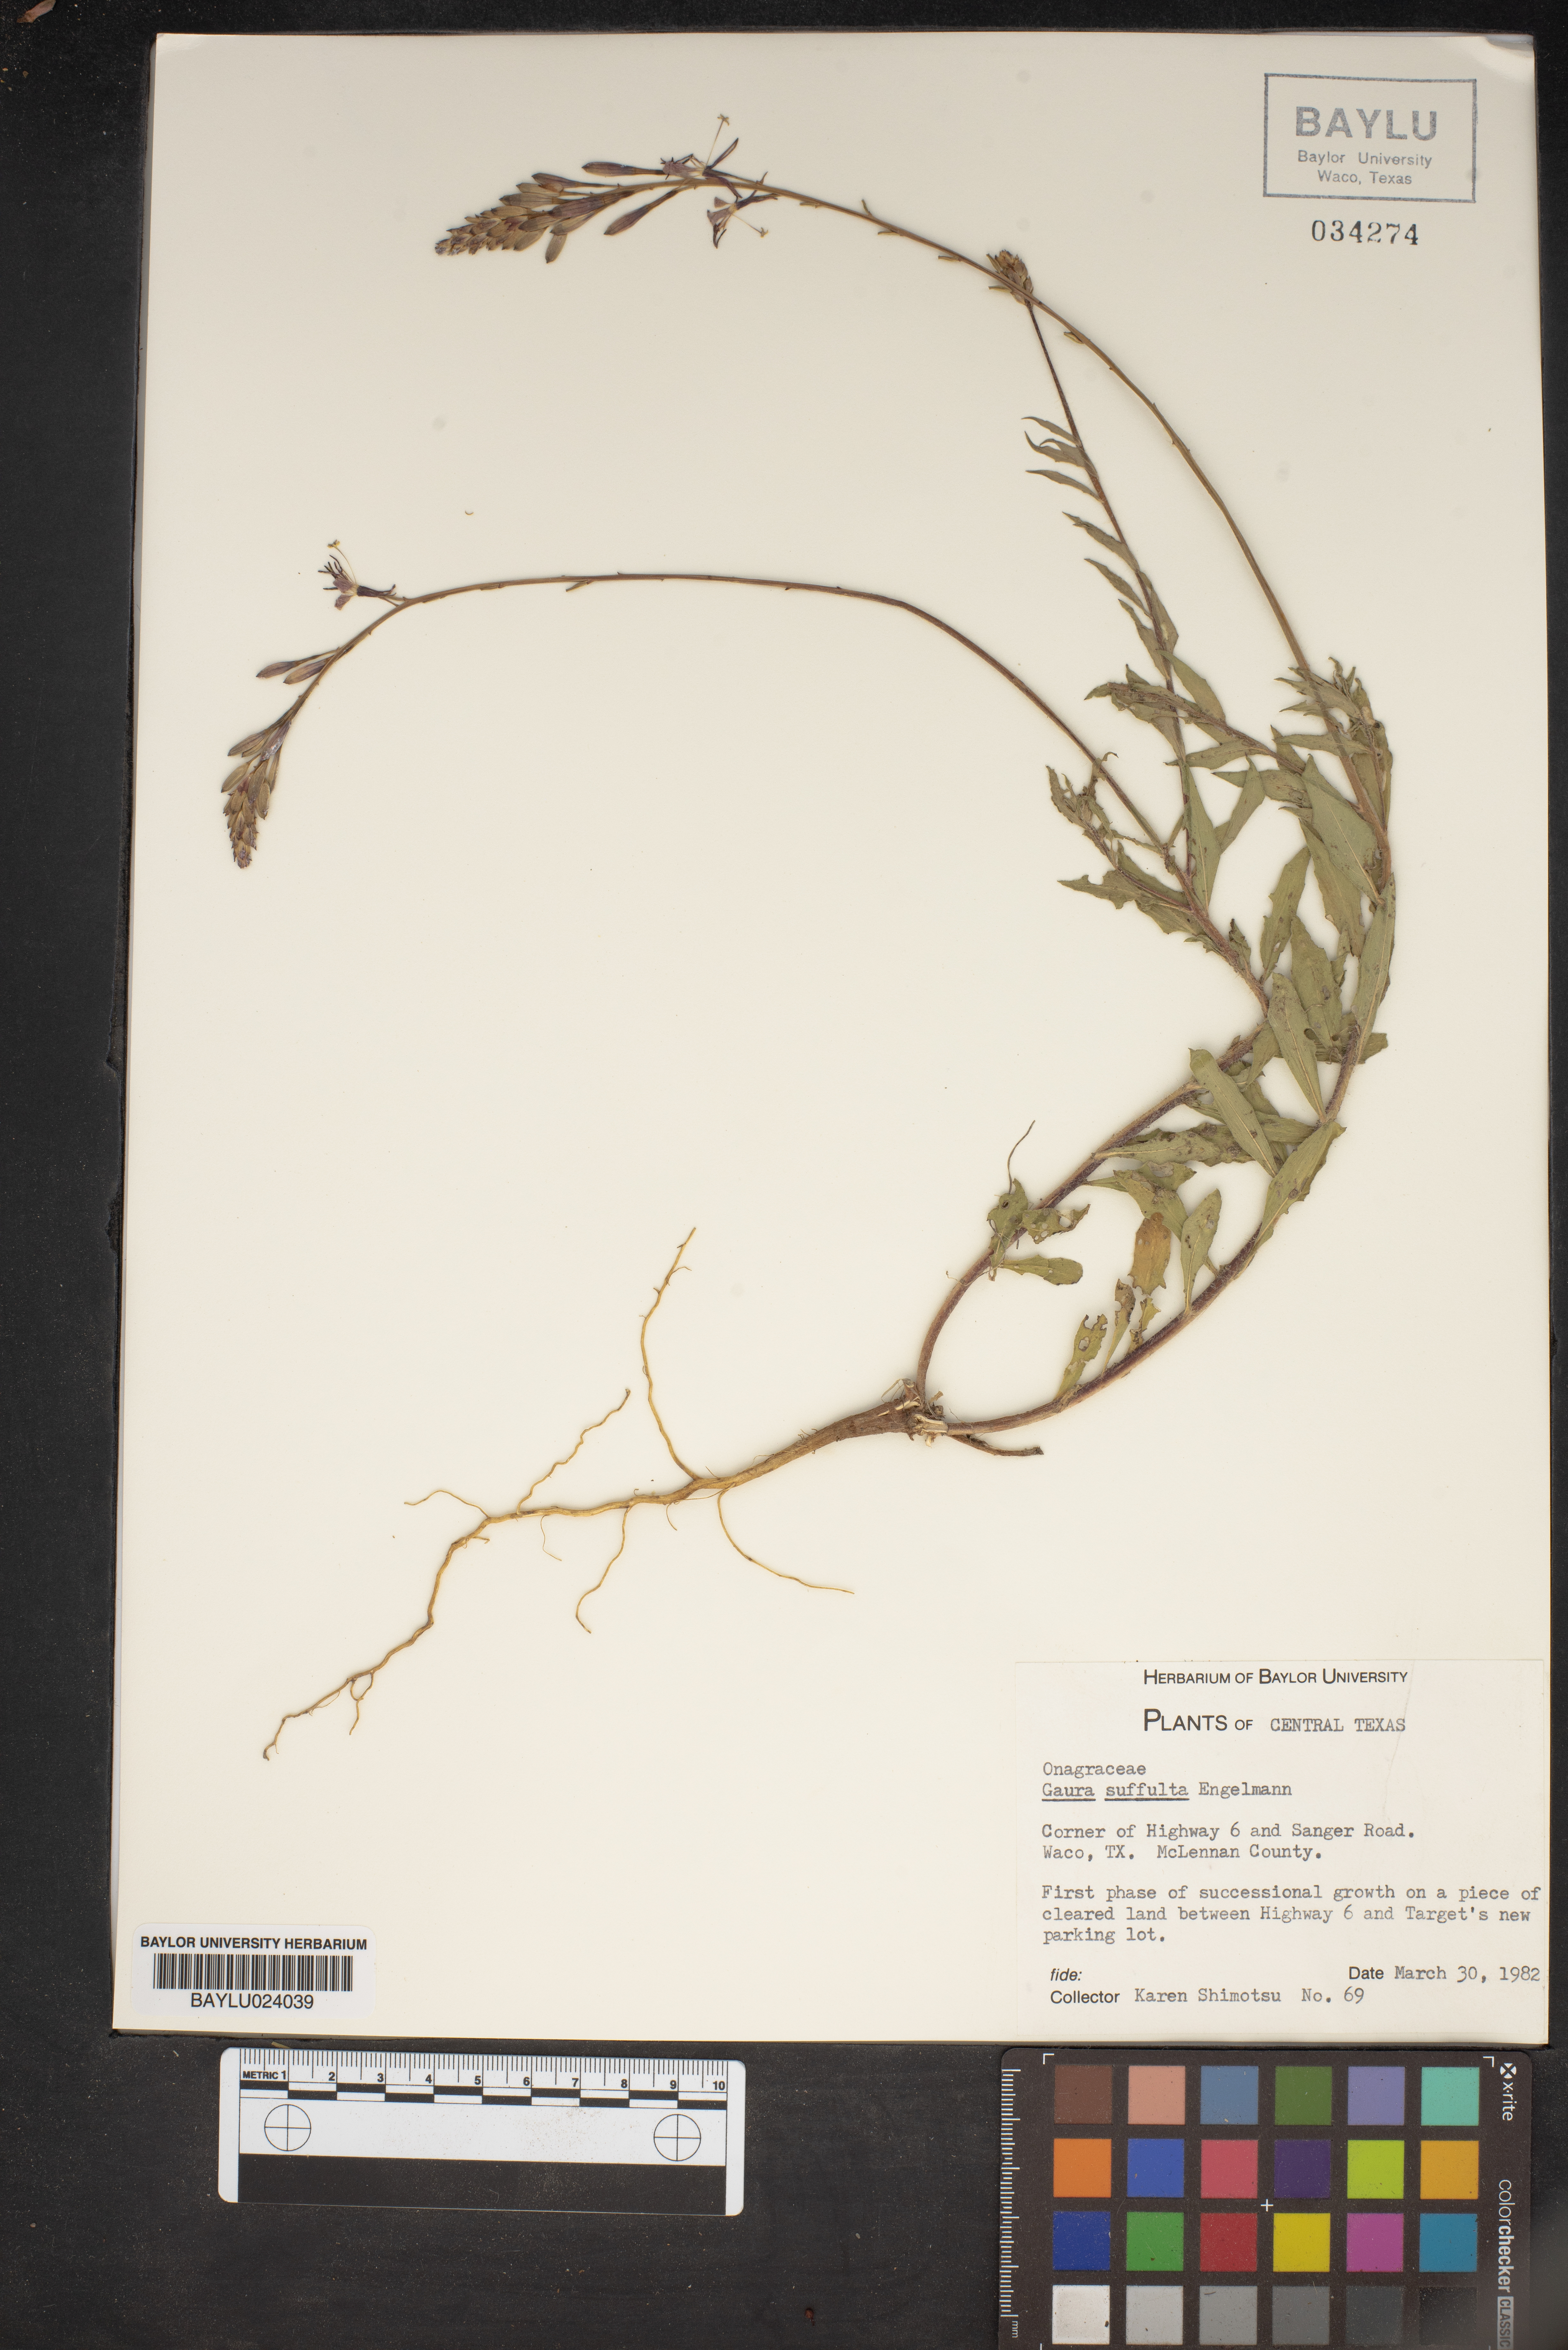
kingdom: Plantae
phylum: Tracheophyta
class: Magnoliopsida
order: Myrtales
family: Onagraceae
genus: Oenothera
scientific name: Oenothera Gaura suffulta
